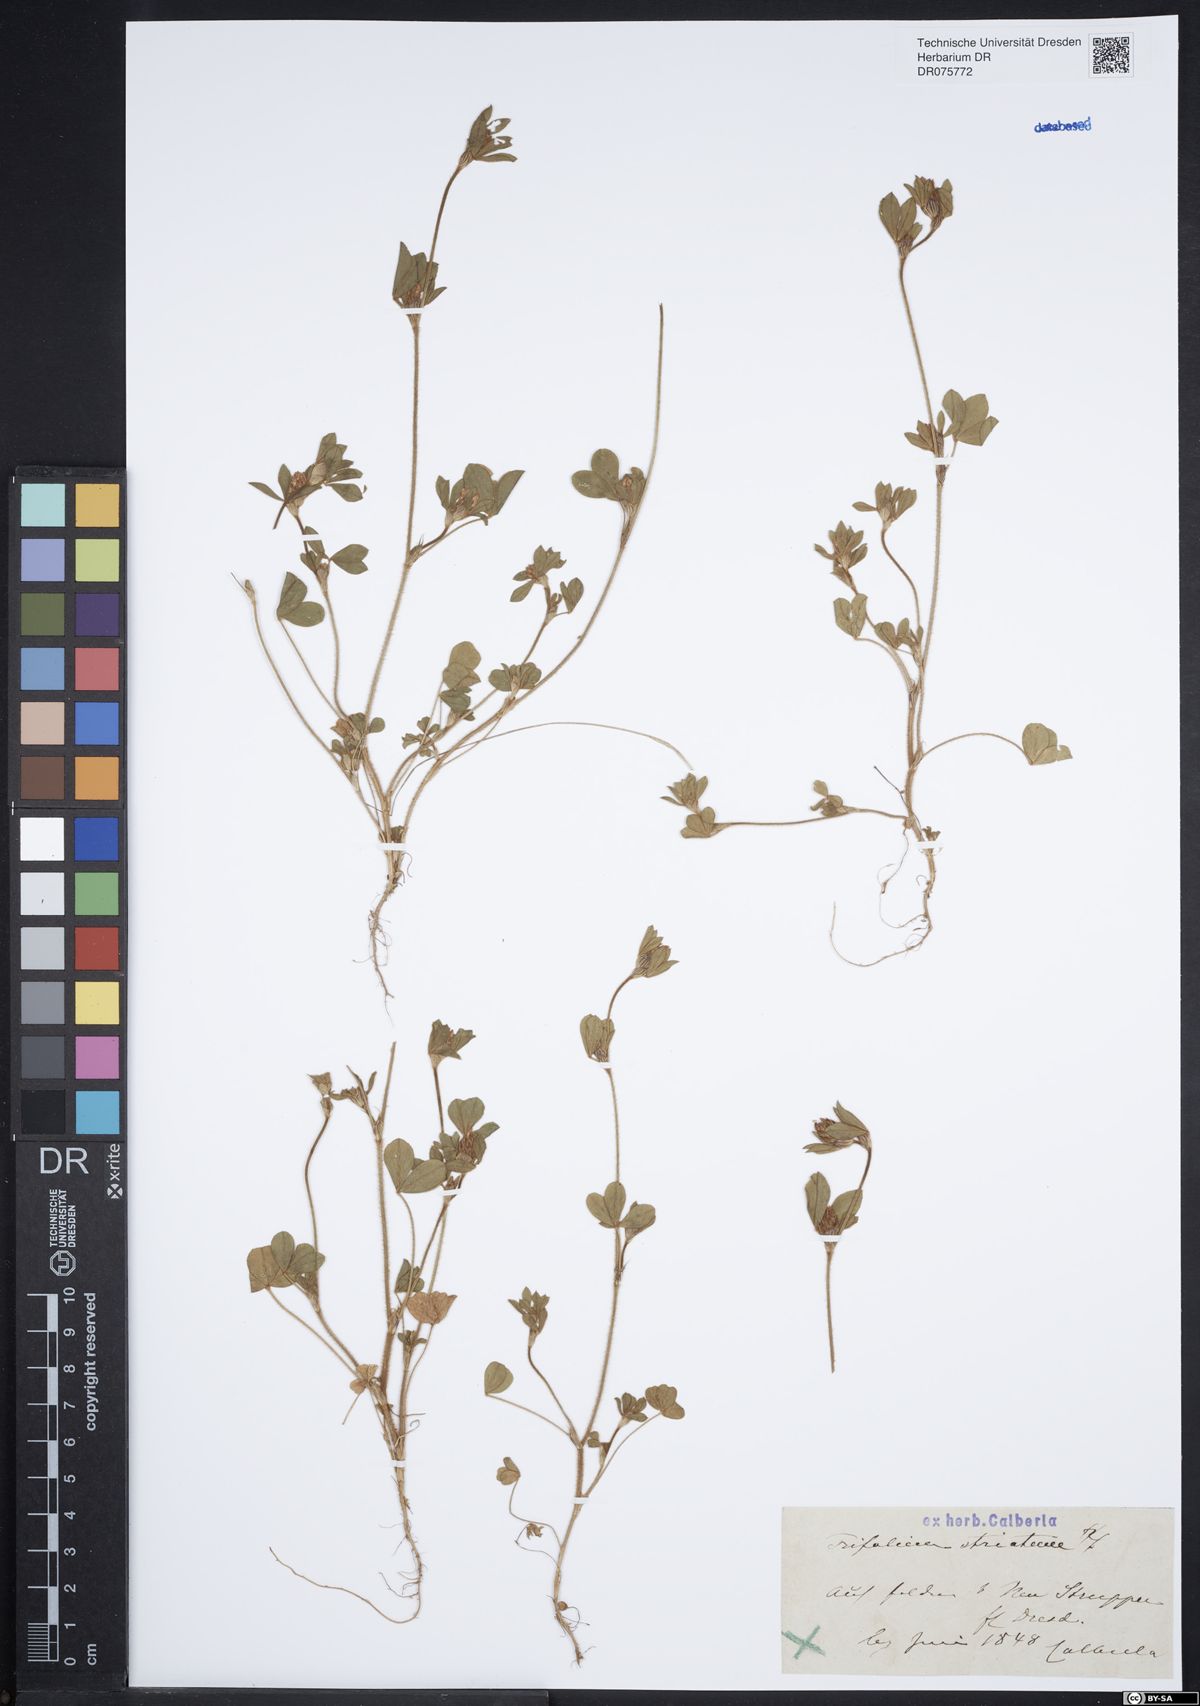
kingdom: Plantae
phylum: Tracheophyta
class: Magnoliopsida
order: Fabales
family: Fabaceae
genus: Trifolium
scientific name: Trifolium striatum
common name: Knotted clover
